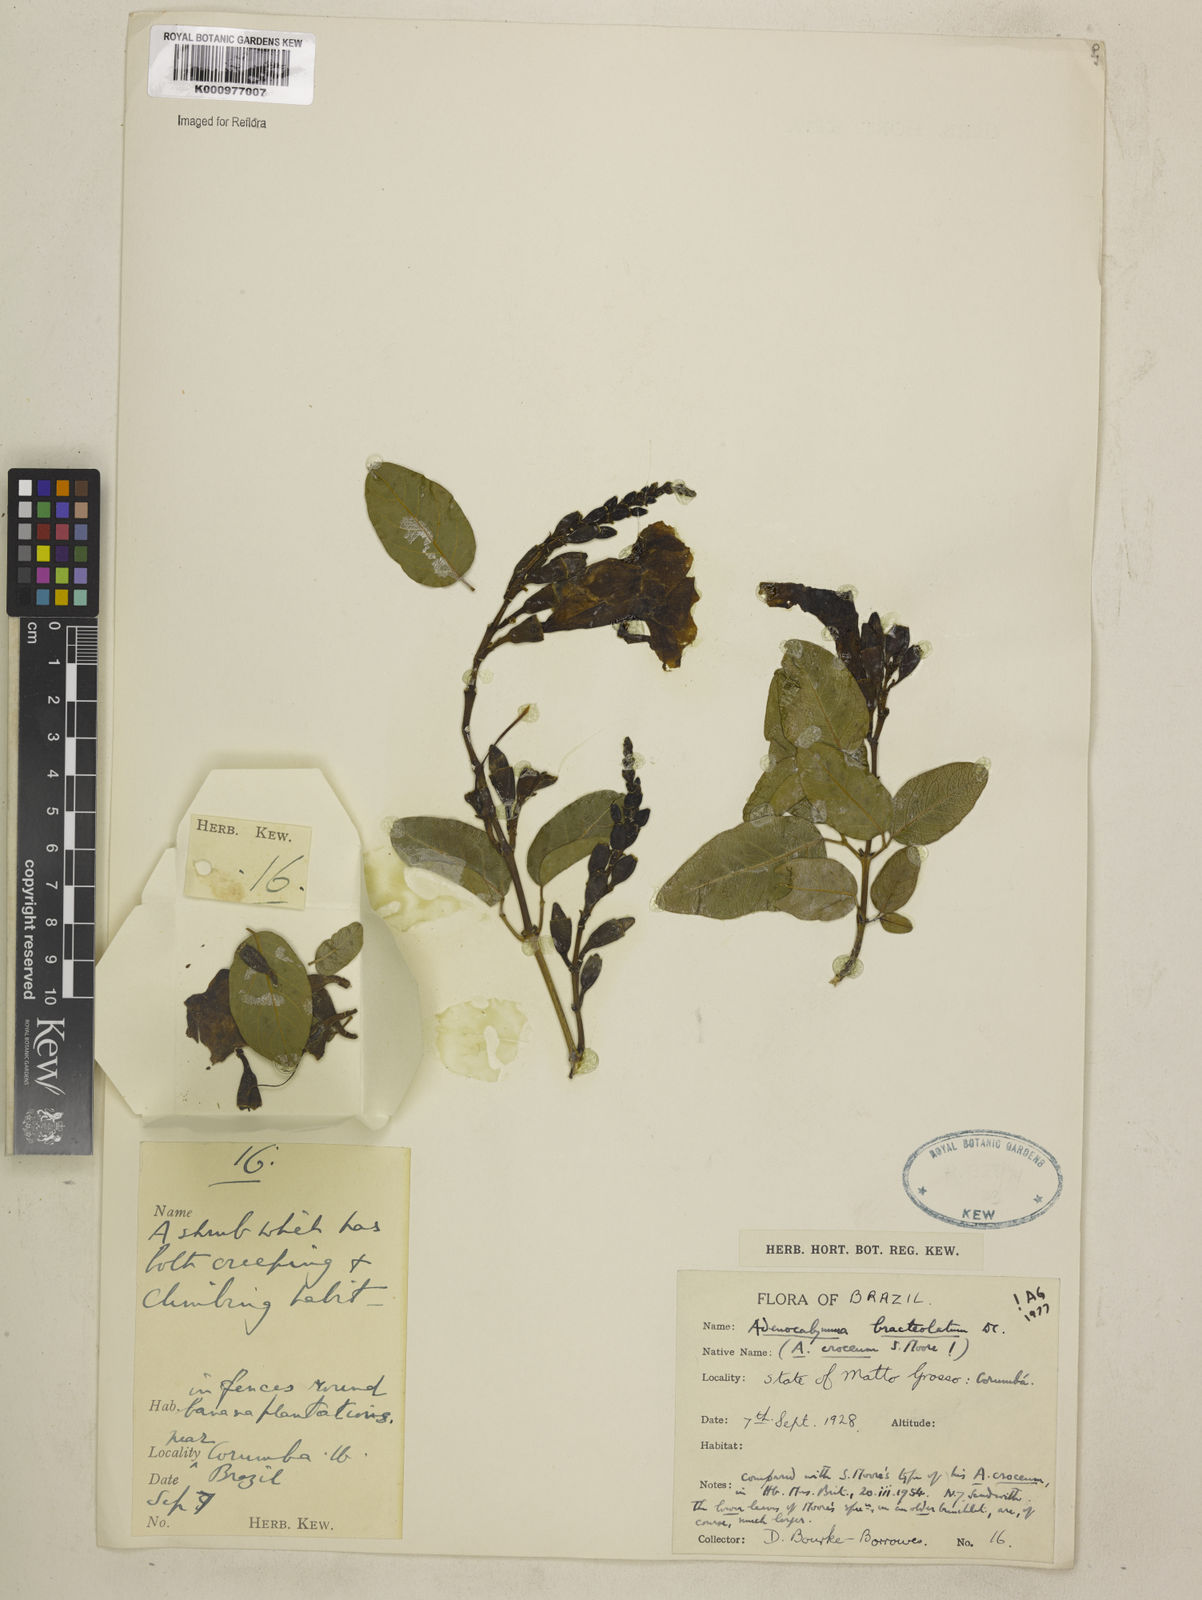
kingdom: Plantae
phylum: Tracheophyta
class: Magnoliopsida
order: Lamiales
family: Bignoniaceae
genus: Adenocalymma
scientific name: Adenocalymma bracteolatum
